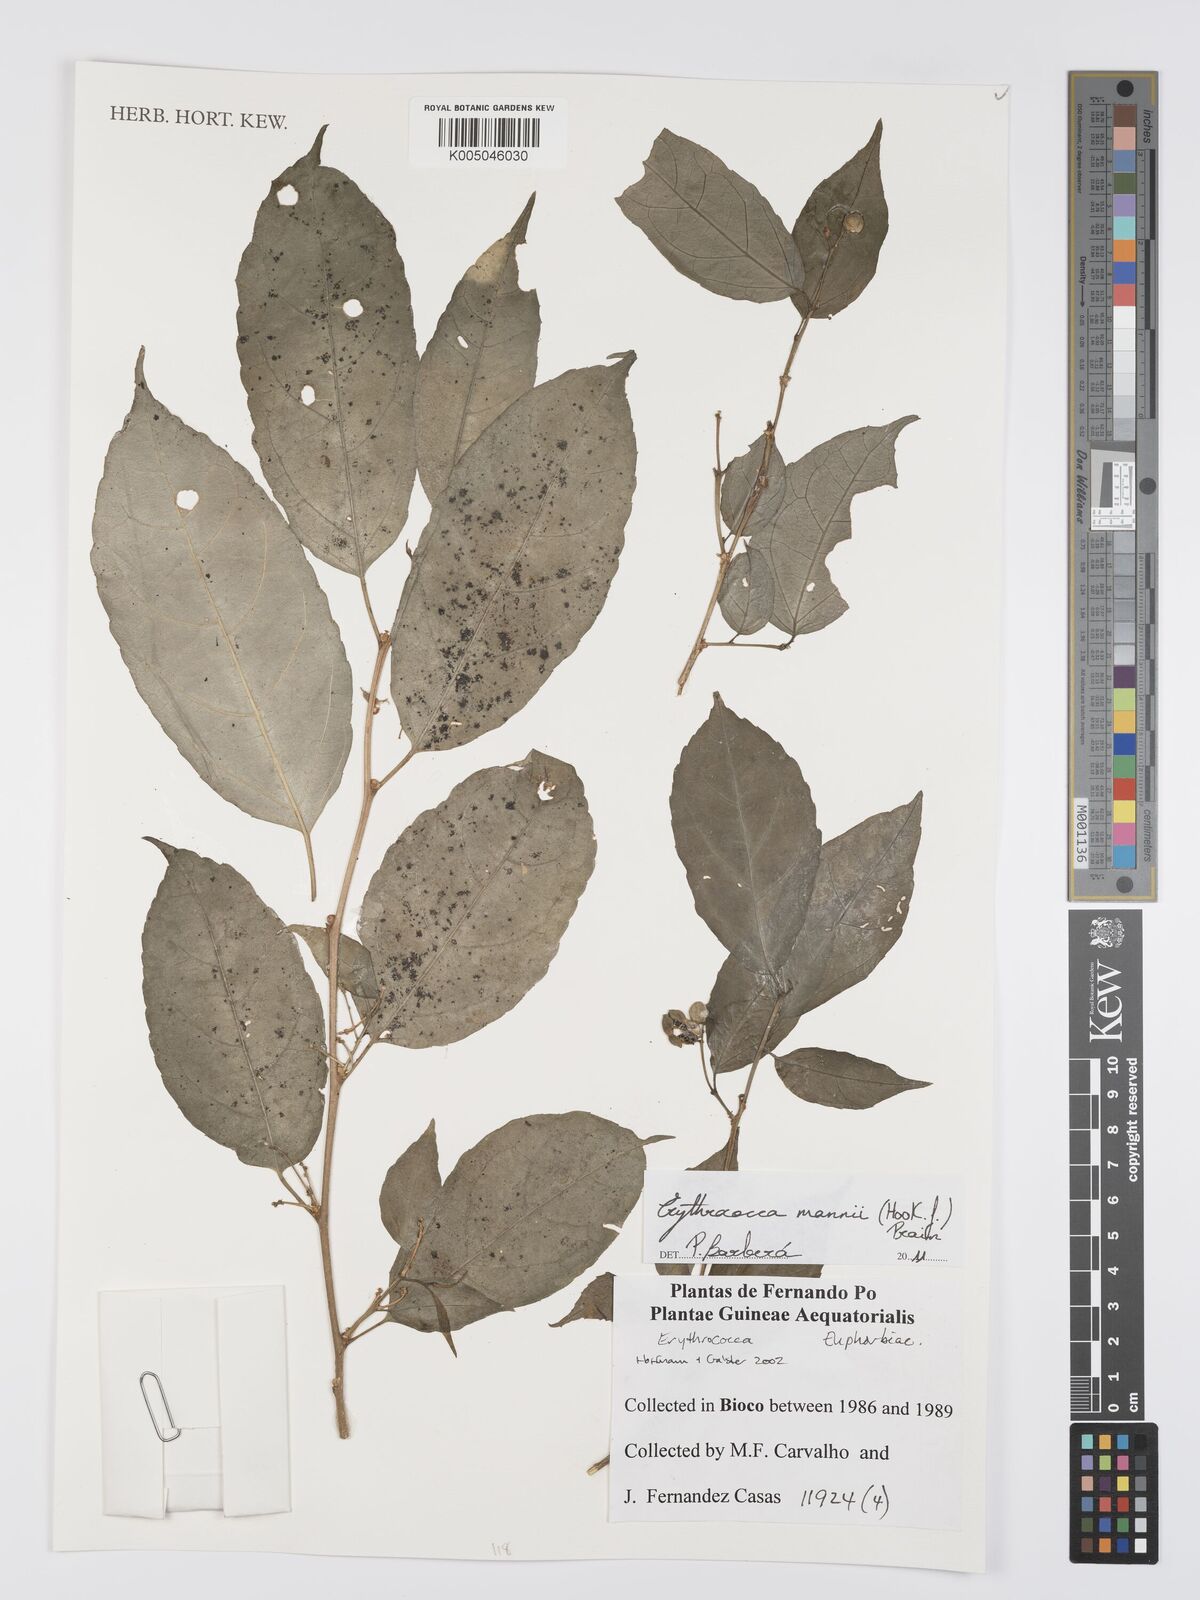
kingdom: Plantae
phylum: Tracheophyta
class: Magnoliopsida
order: Malpighiales
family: Euphorbiaceae
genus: Erythrococca
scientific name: Erythrococca mannii
